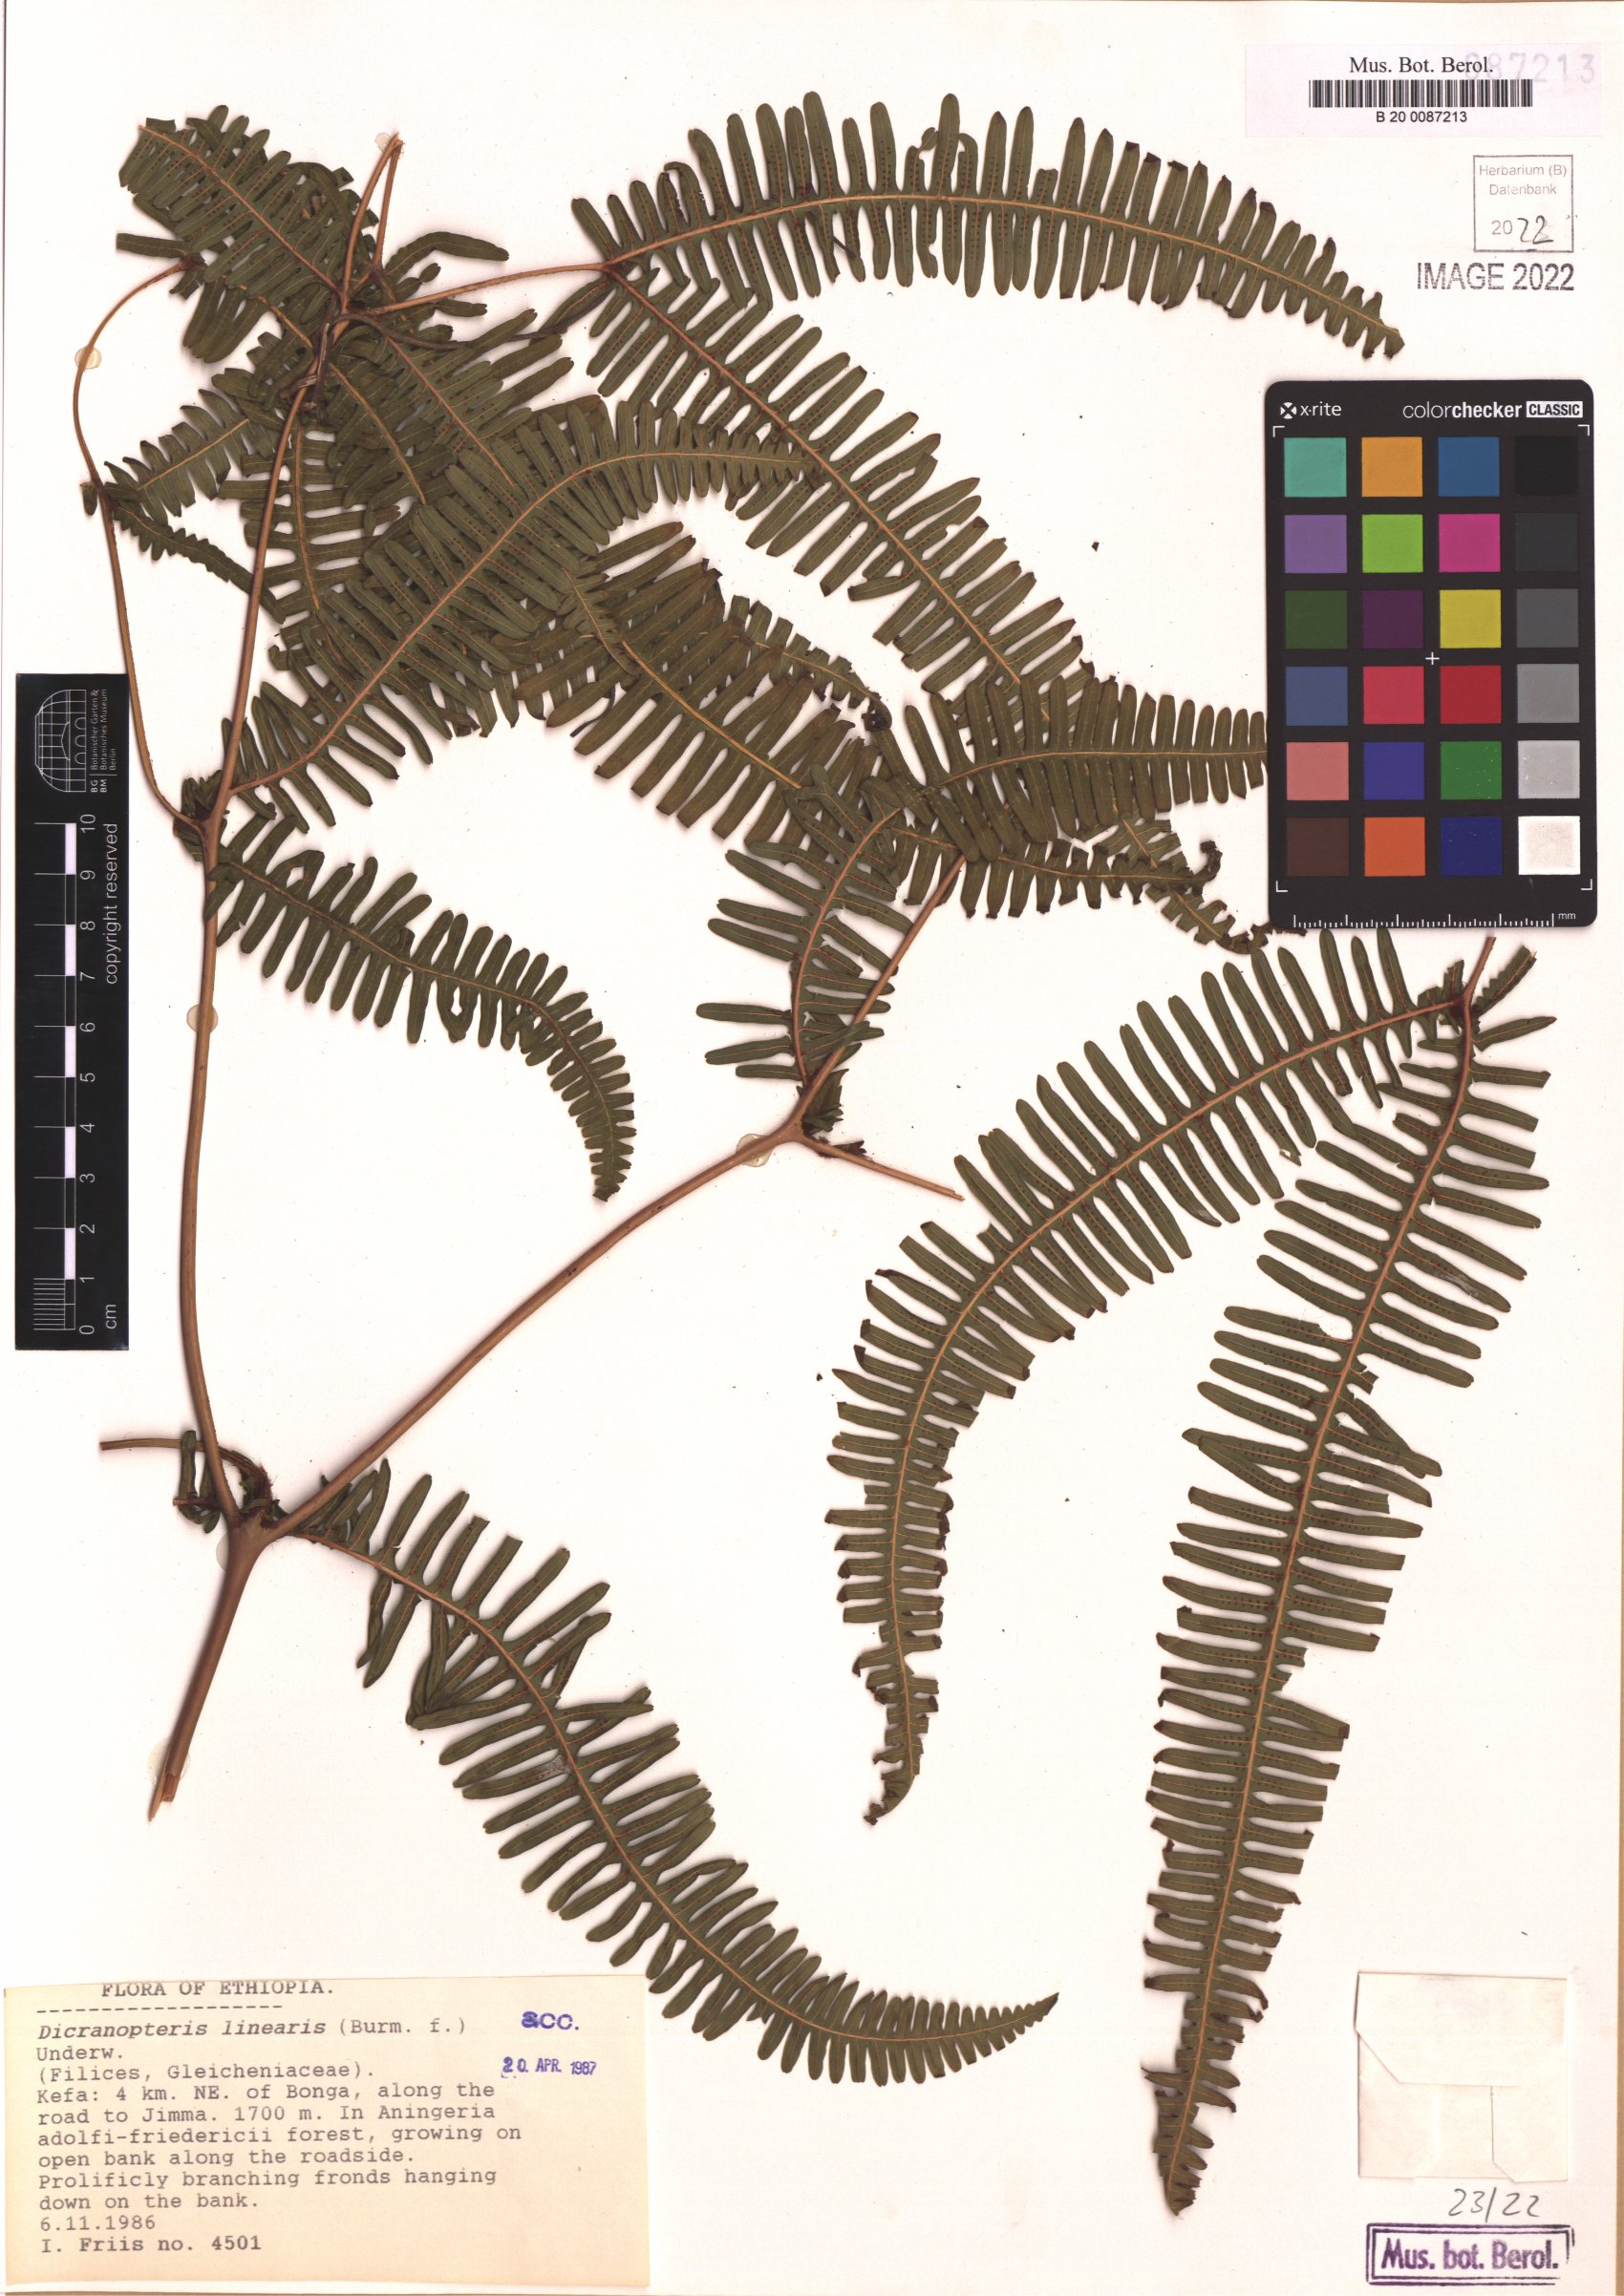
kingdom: Plantae
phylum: Tracheophyta
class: Polypodiopsida
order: Gleicheniales
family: Gleicheniaceae
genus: Dicranopteris
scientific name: Dicranopteris linearis
